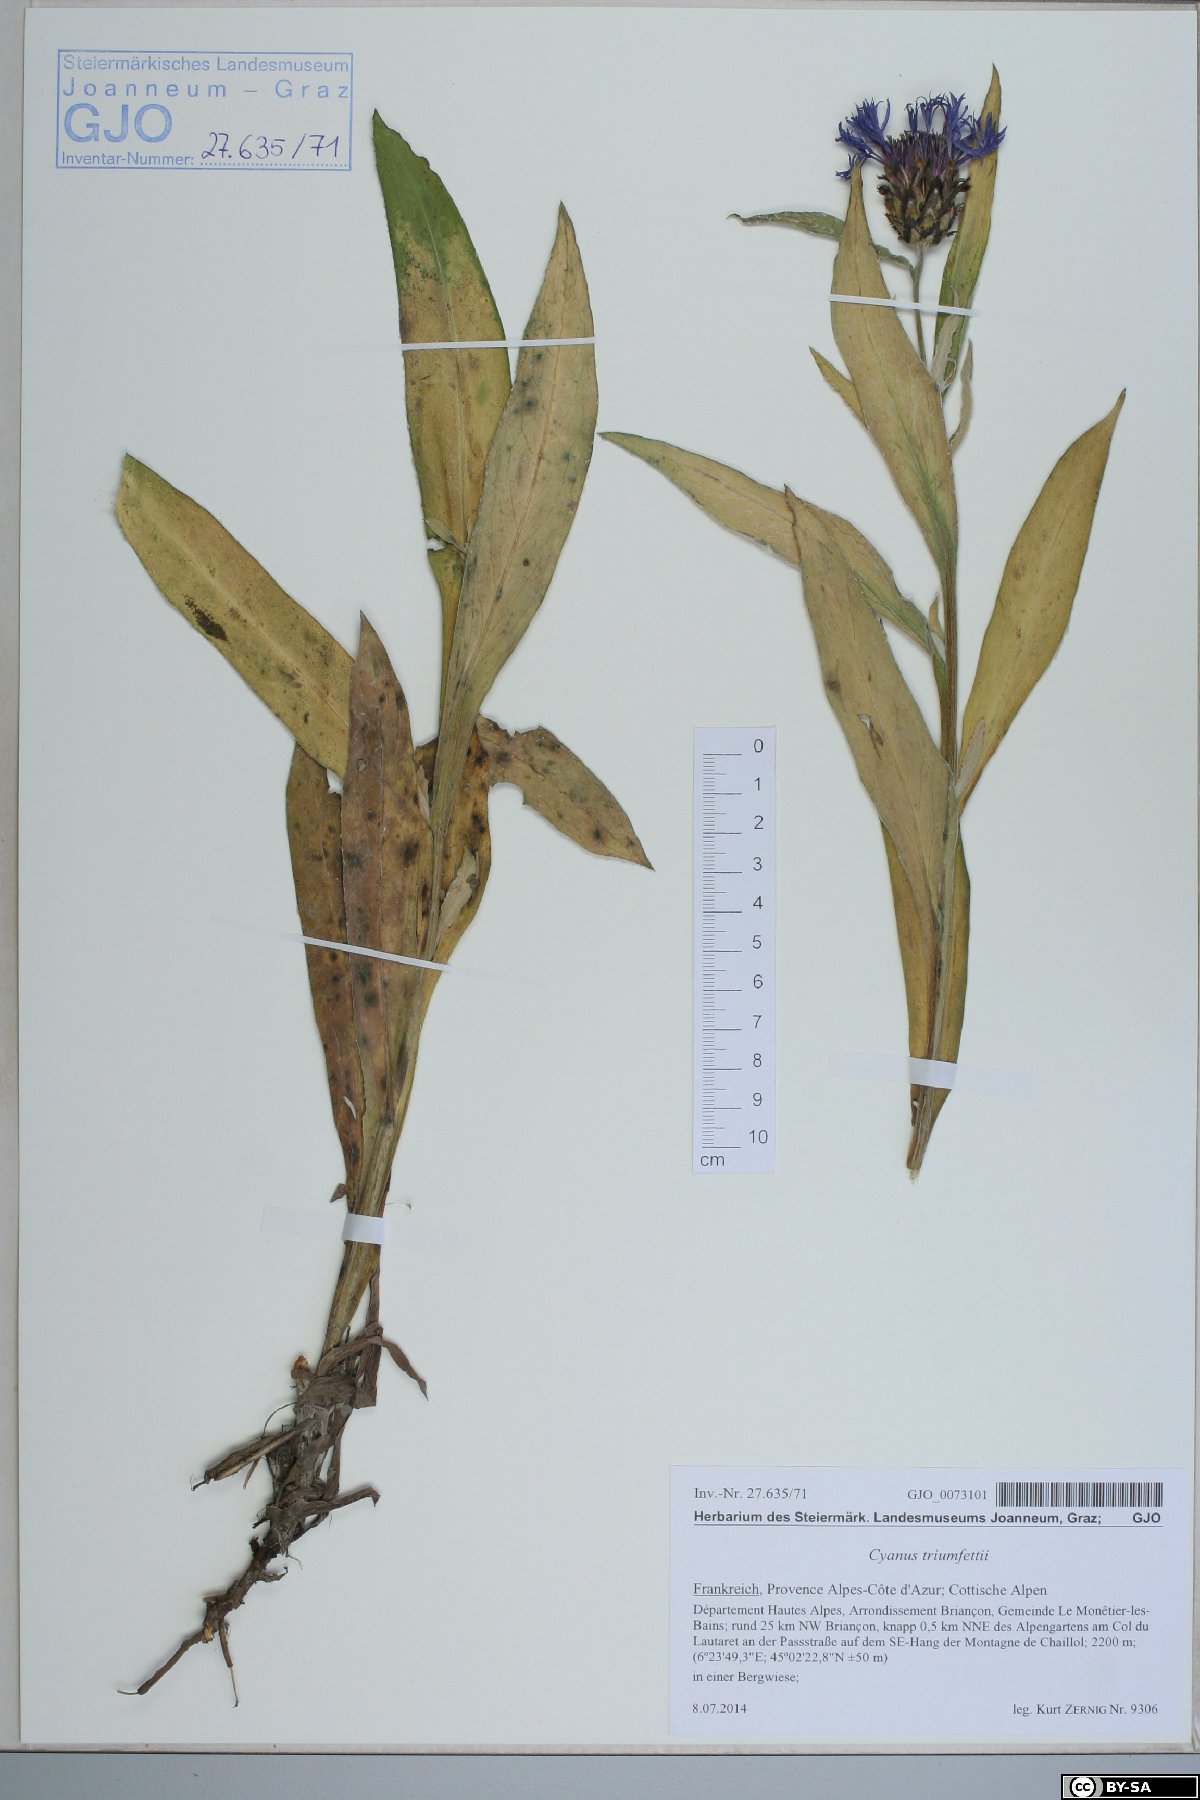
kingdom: Plantae
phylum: Tracheophyta
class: Magnoliopsida
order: Asterales
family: Asteraceae
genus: Centaurea
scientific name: Centaurea triumfettii
